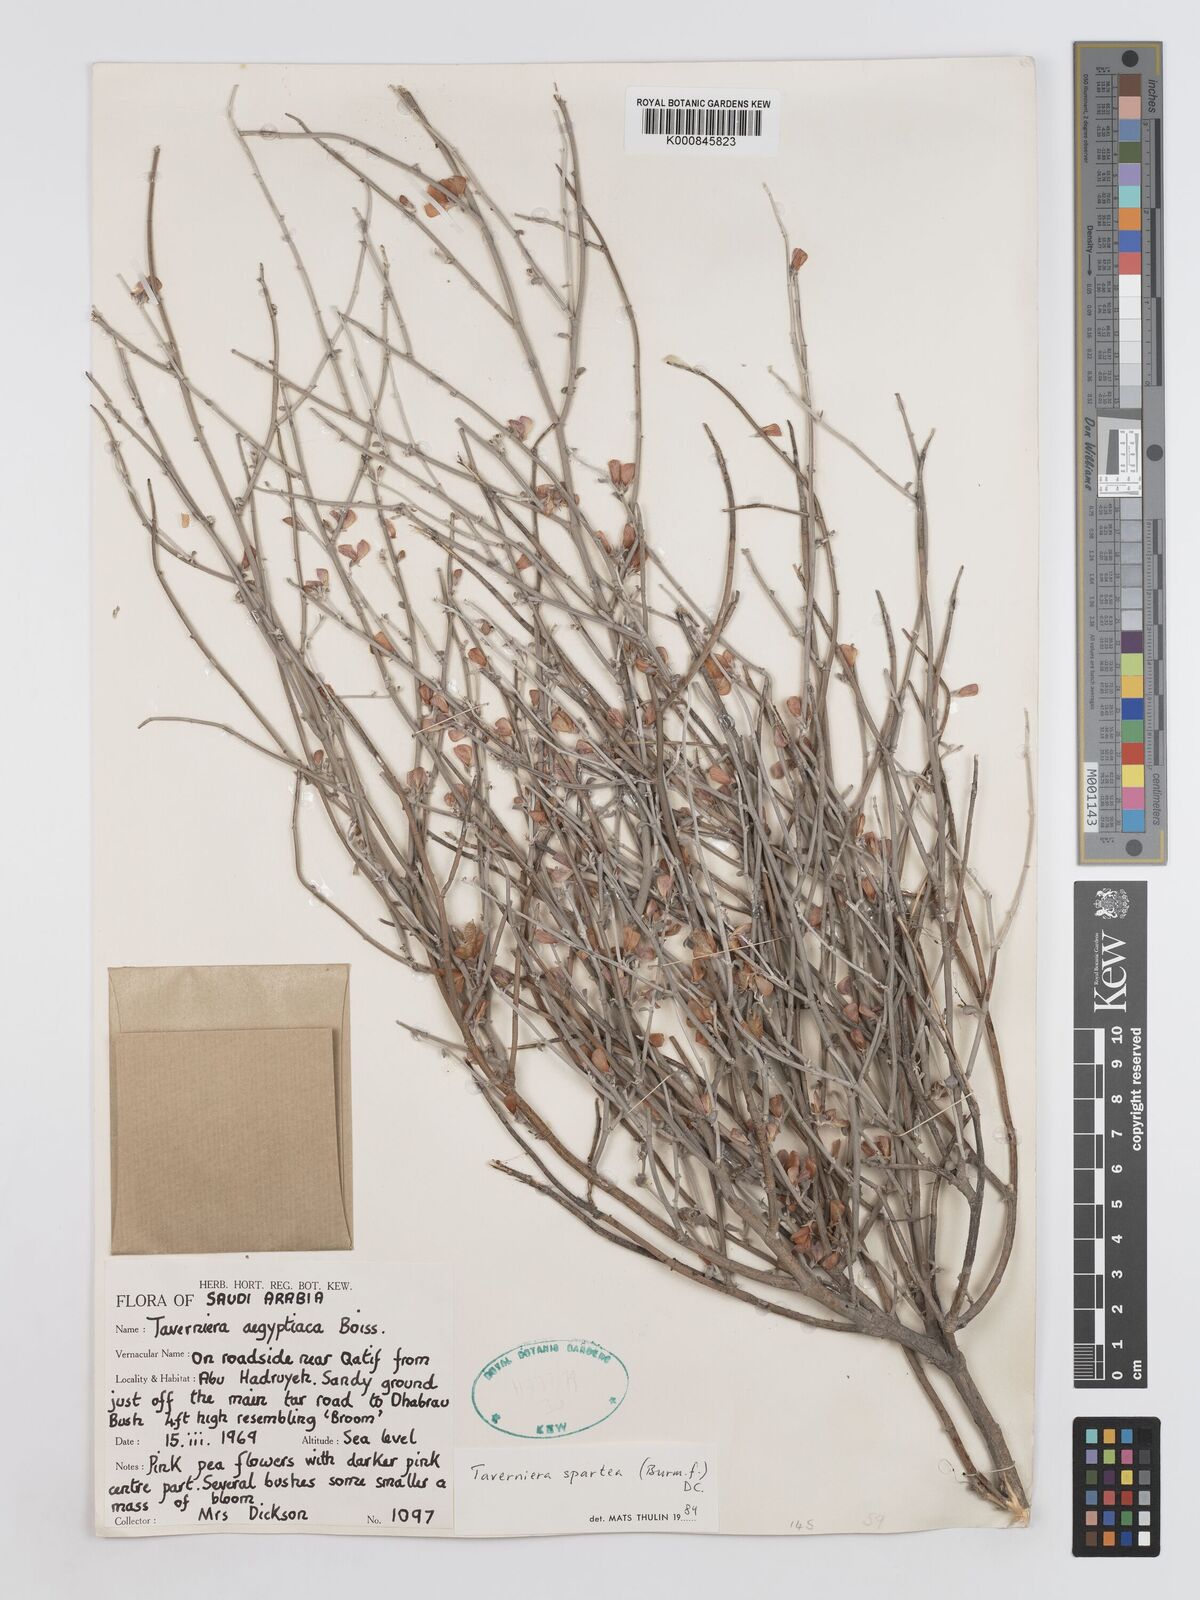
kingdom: Plantae
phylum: Tracheophyta
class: Magnoliopsida
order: Fabales
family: Fabaceae
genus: Taverniera
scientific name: Taverniera spartea
